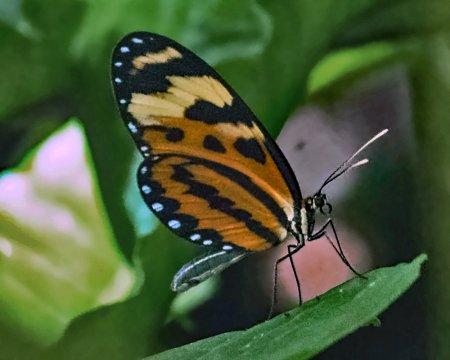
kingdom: Animalia
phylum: Arthropoda
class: Insecta
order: Lepidoptera
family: Nymphalidae
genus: Mechanitis
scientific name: Mechanitis lysimnia
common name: Lysimnia Tigerwing
